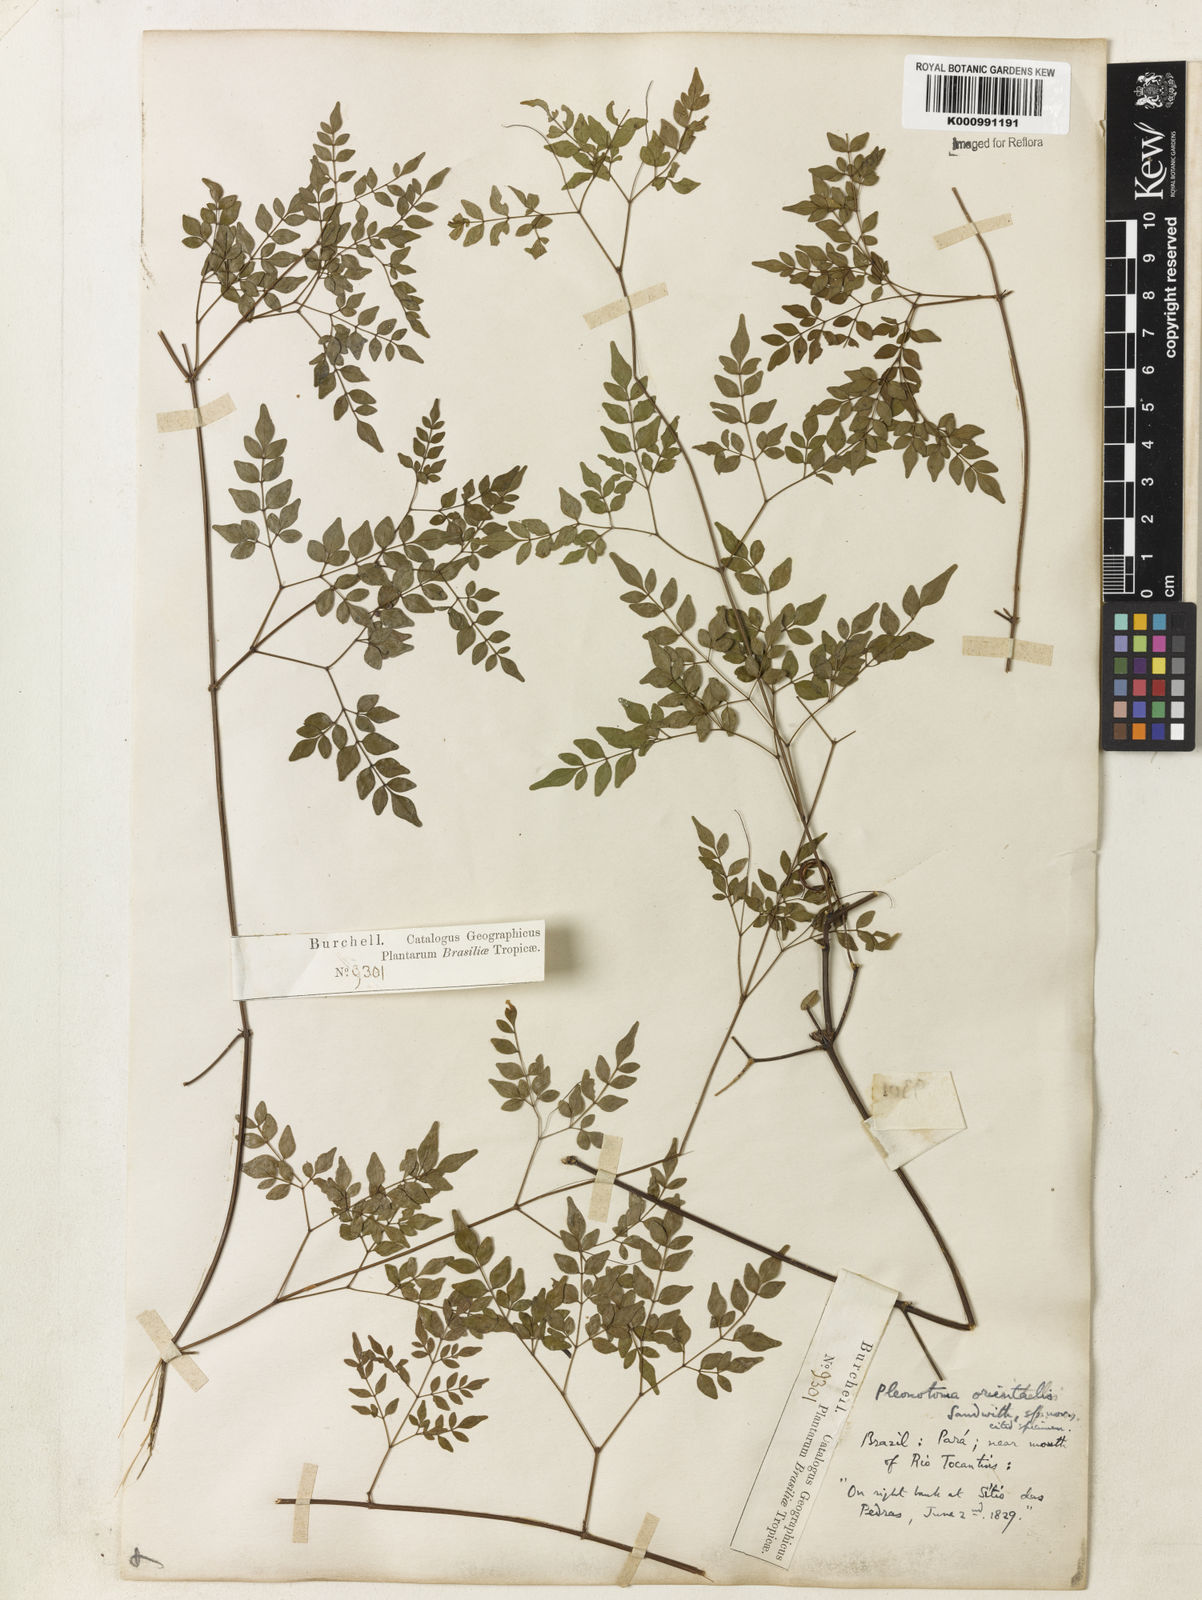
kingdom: Plantae
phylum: Tracheophyta
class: Magnoliopsida
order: Lamiales
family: Bignoniaceae
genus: Pleonotoma
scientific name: Pleonotoma orientalis
